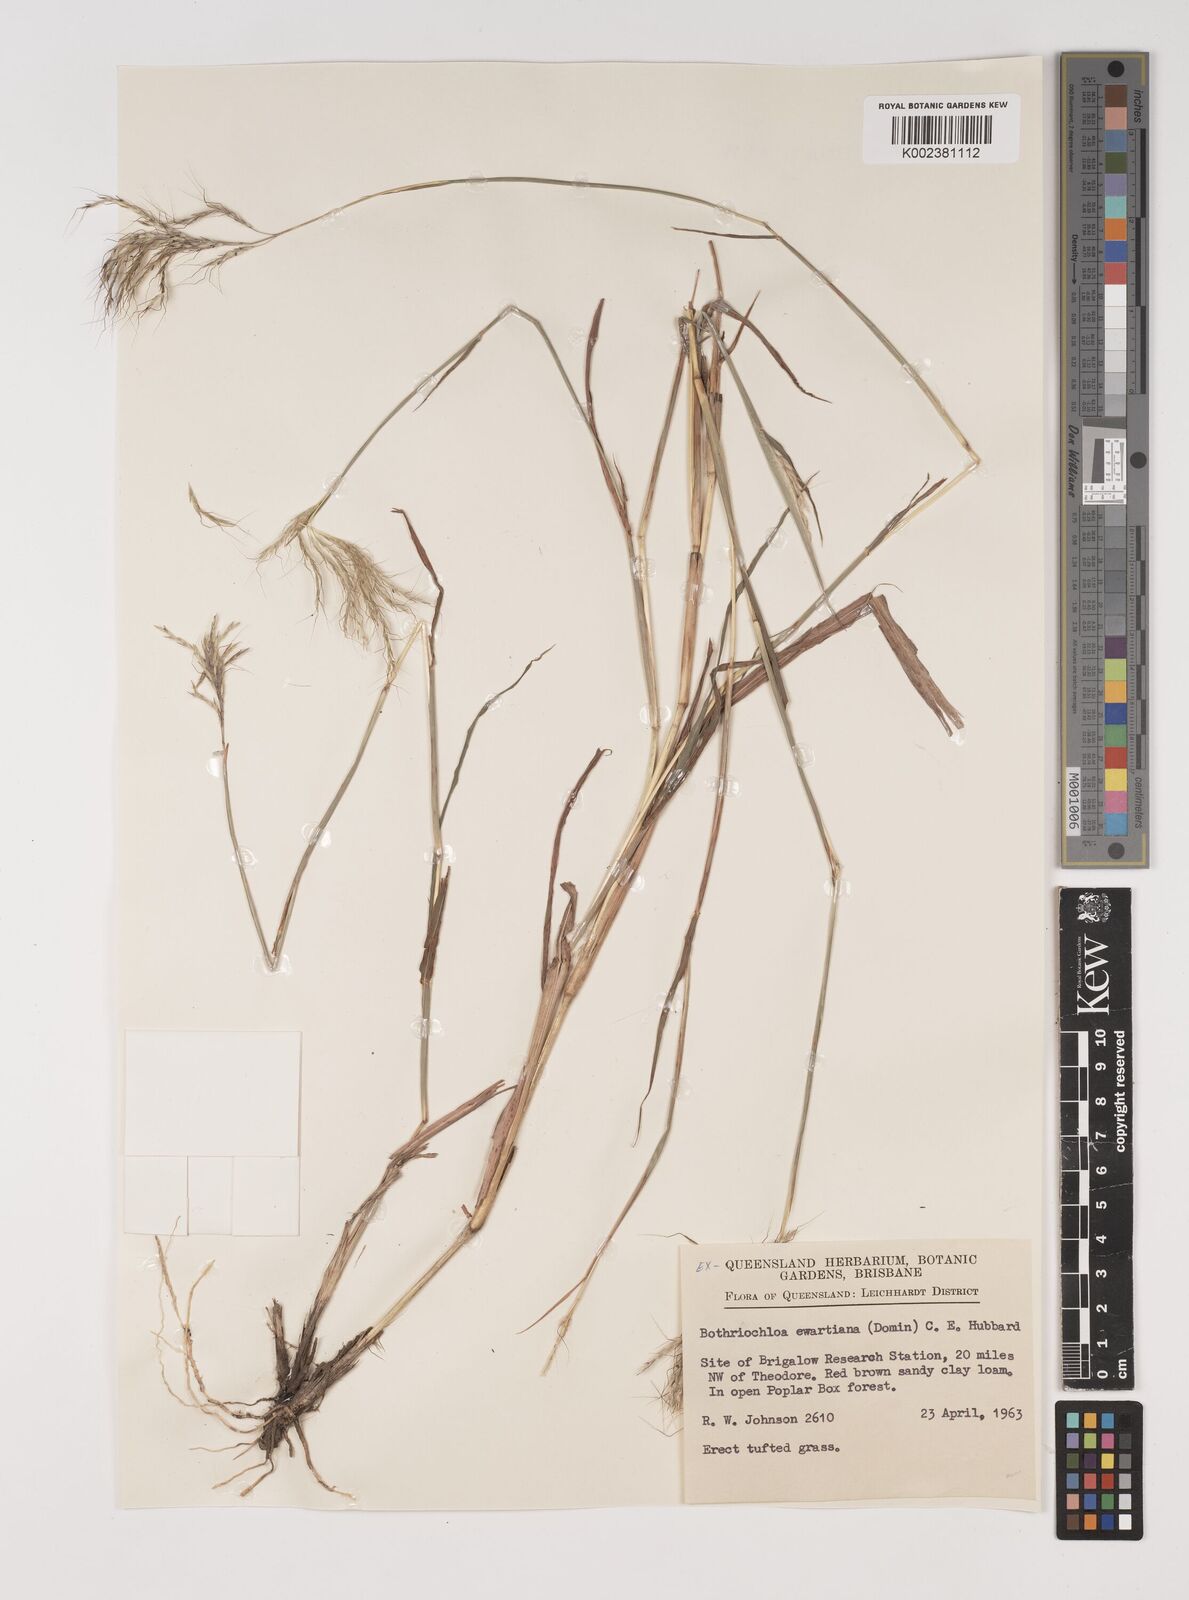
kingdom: Plantae
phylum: Tracheophyta
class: Liliopsida
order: Poales
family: Poaceae
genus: Bothriochloa
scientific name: Bothriochloa ewartiana
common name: Desert-bluegrass
